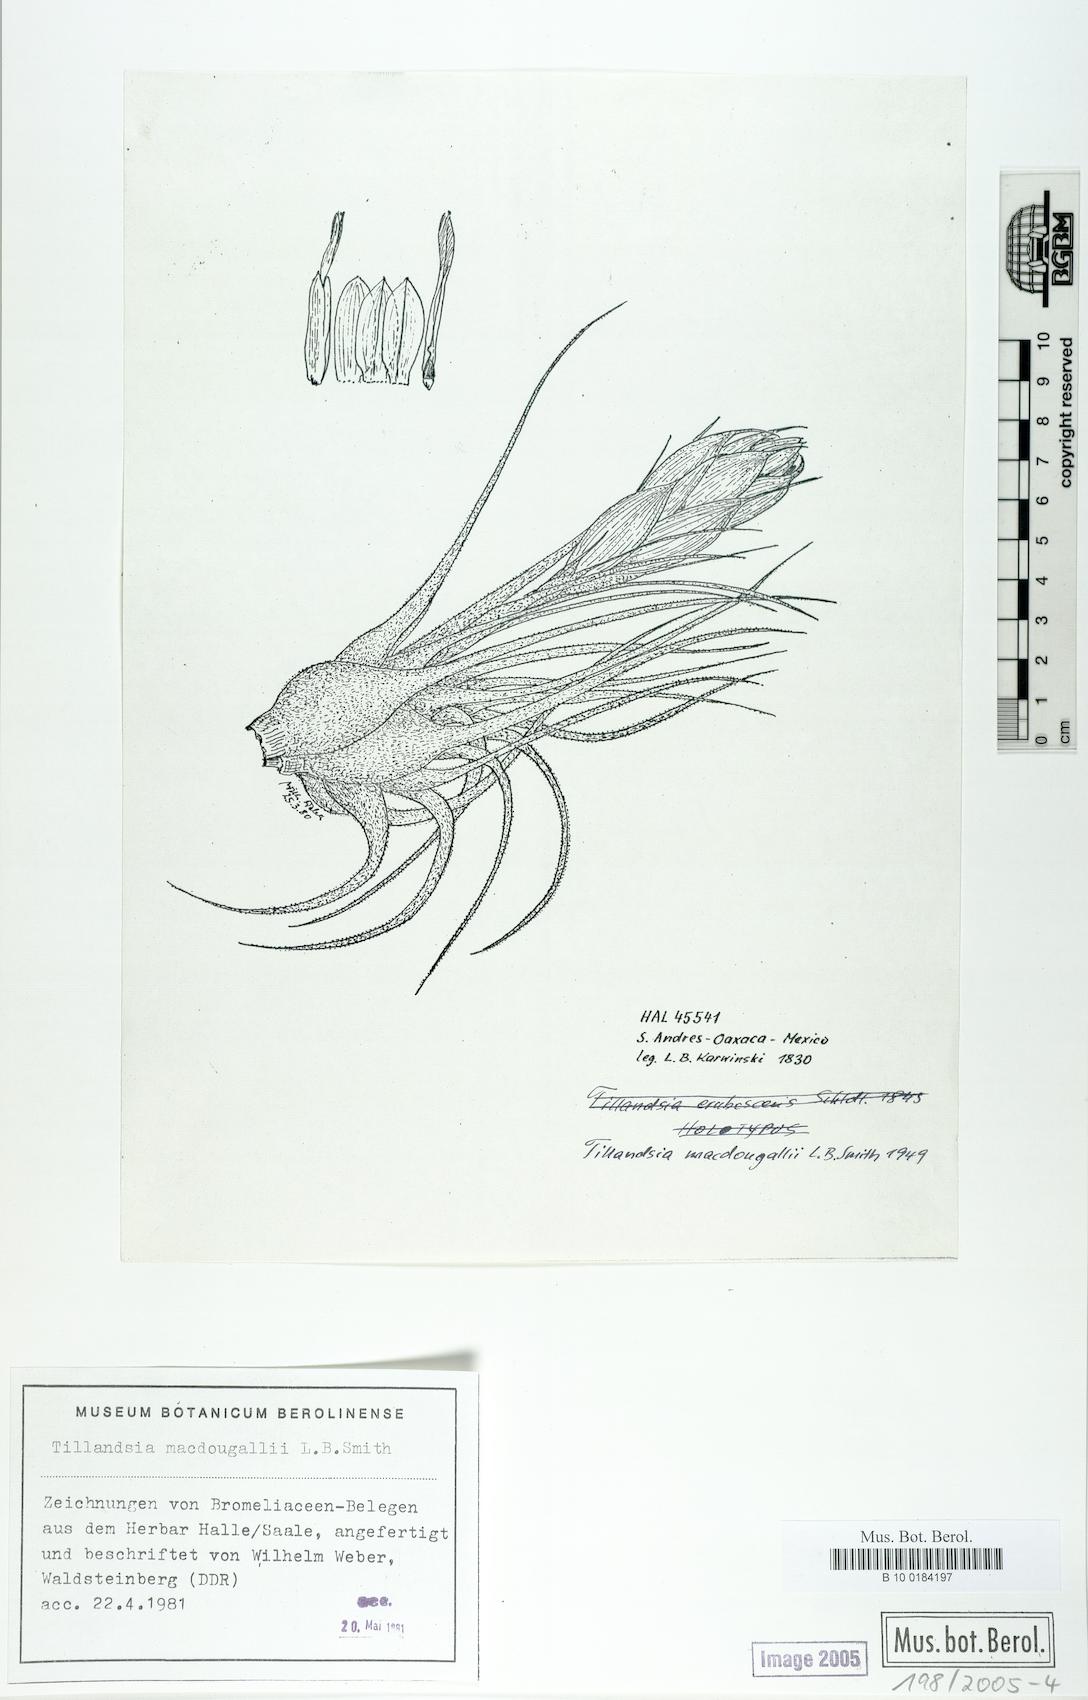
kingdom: Plantae
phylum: Tracheophyta
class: Liliopsida
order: Poales
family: Bromeliaceae
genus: Tillandsia
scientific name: Tillandsia macdougallii
